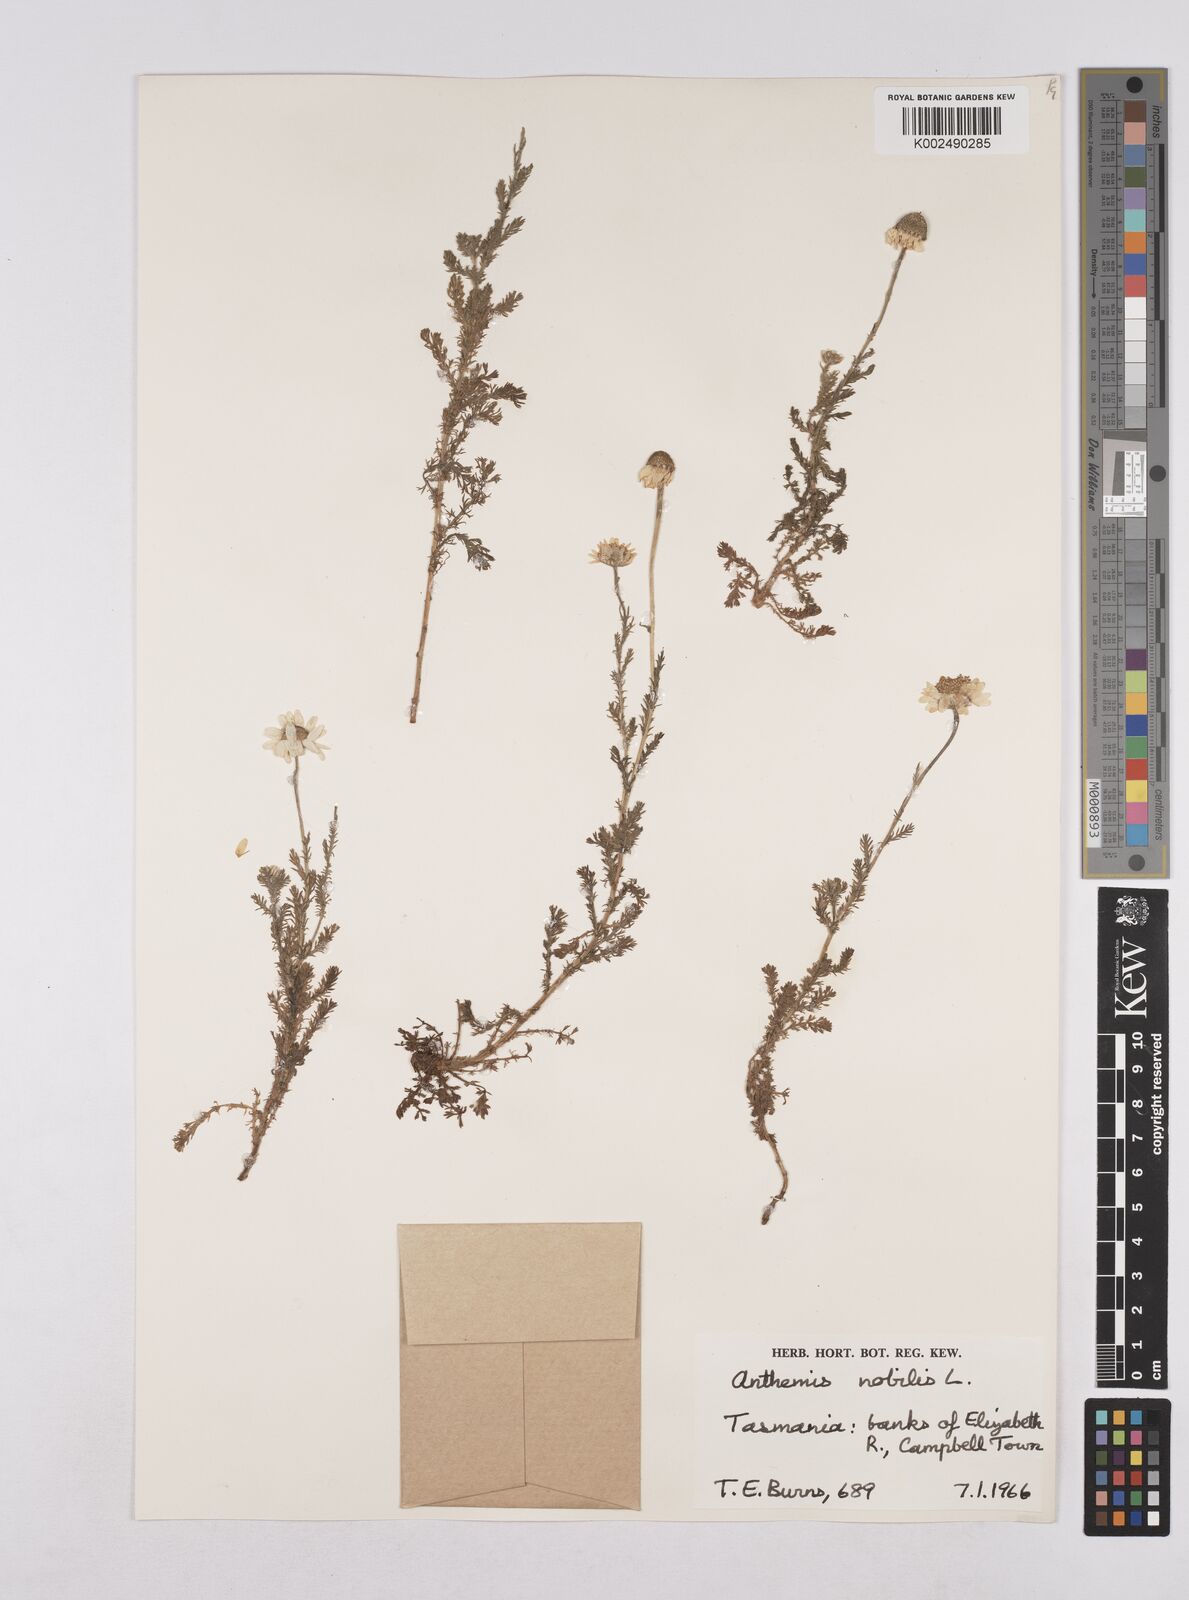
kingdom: Plantae
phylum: Tracheophyta
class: Magnoliopsida
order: Asterales
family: Asteraceae
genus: Chamaemelum
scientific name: Chamaemelum nobile
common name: Roman chamomile
